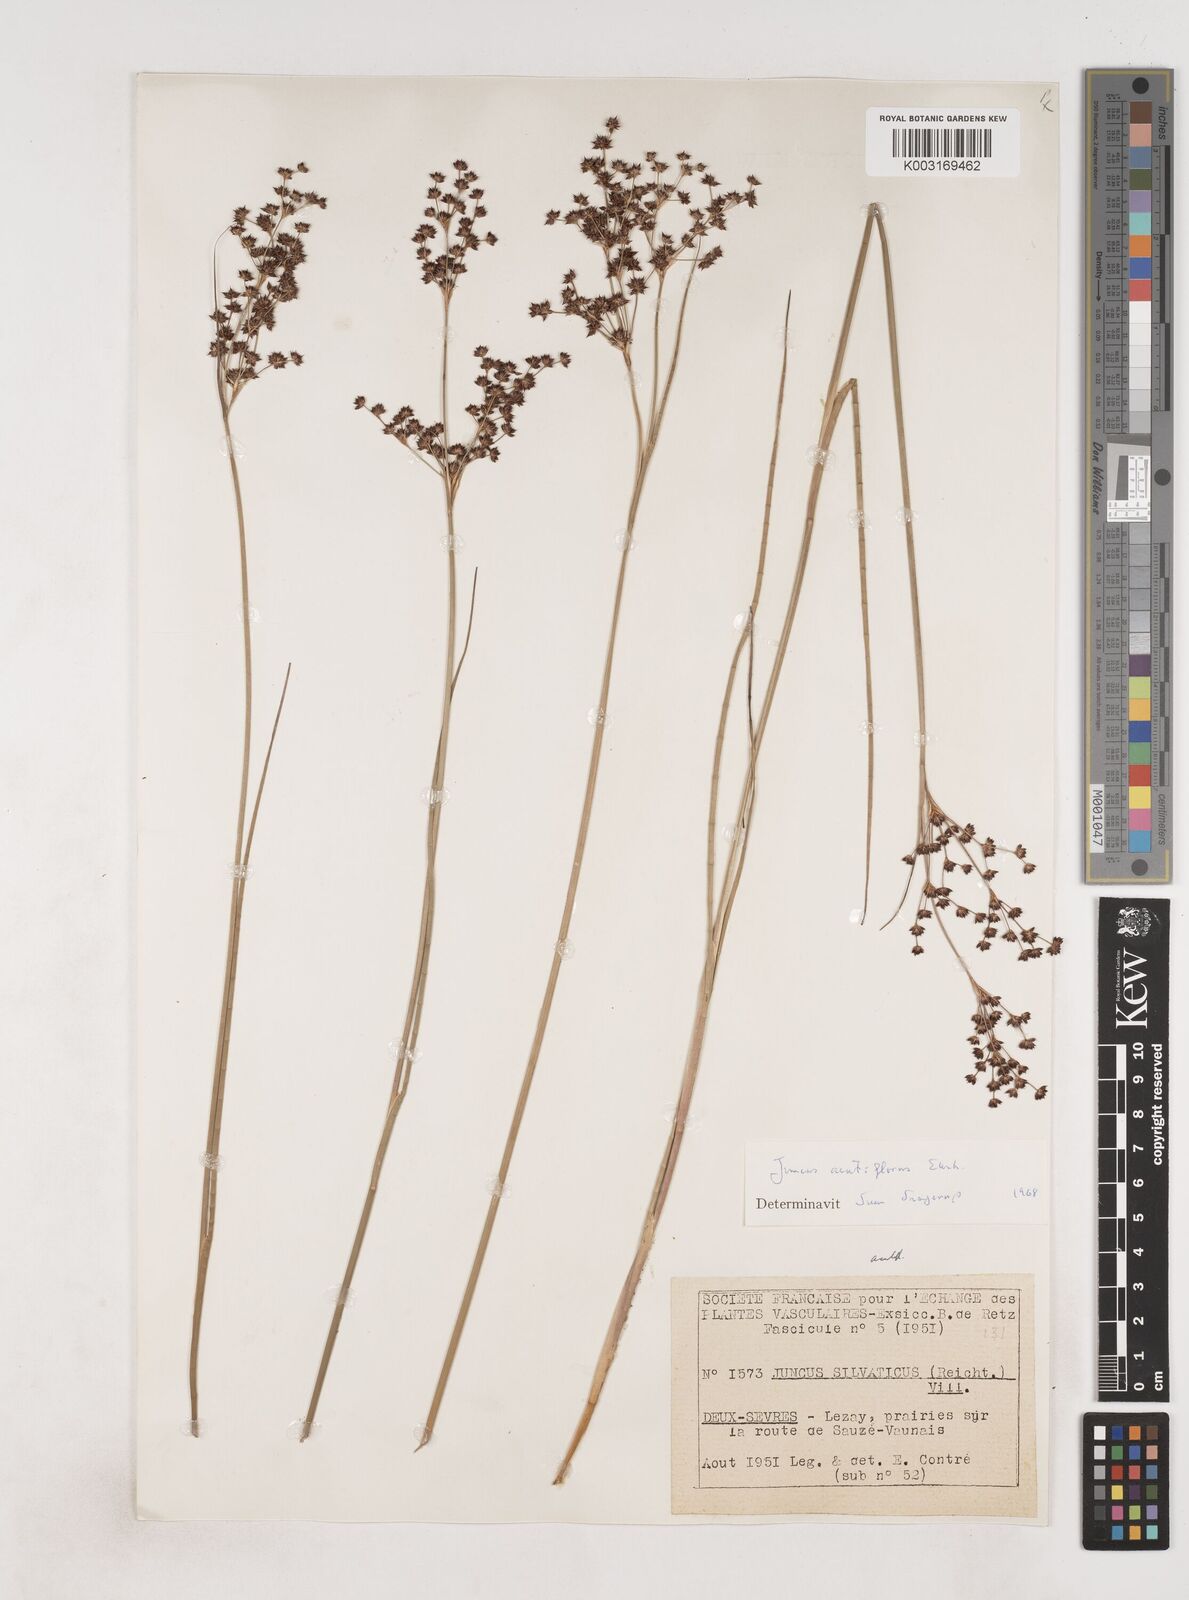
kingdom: Plantae
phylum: Tracheophyta
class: Liliopsida
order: Poales
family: Juncaceae
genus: Juncus
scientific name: Juncus acutiflorus
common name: Sharp-flowered rush
